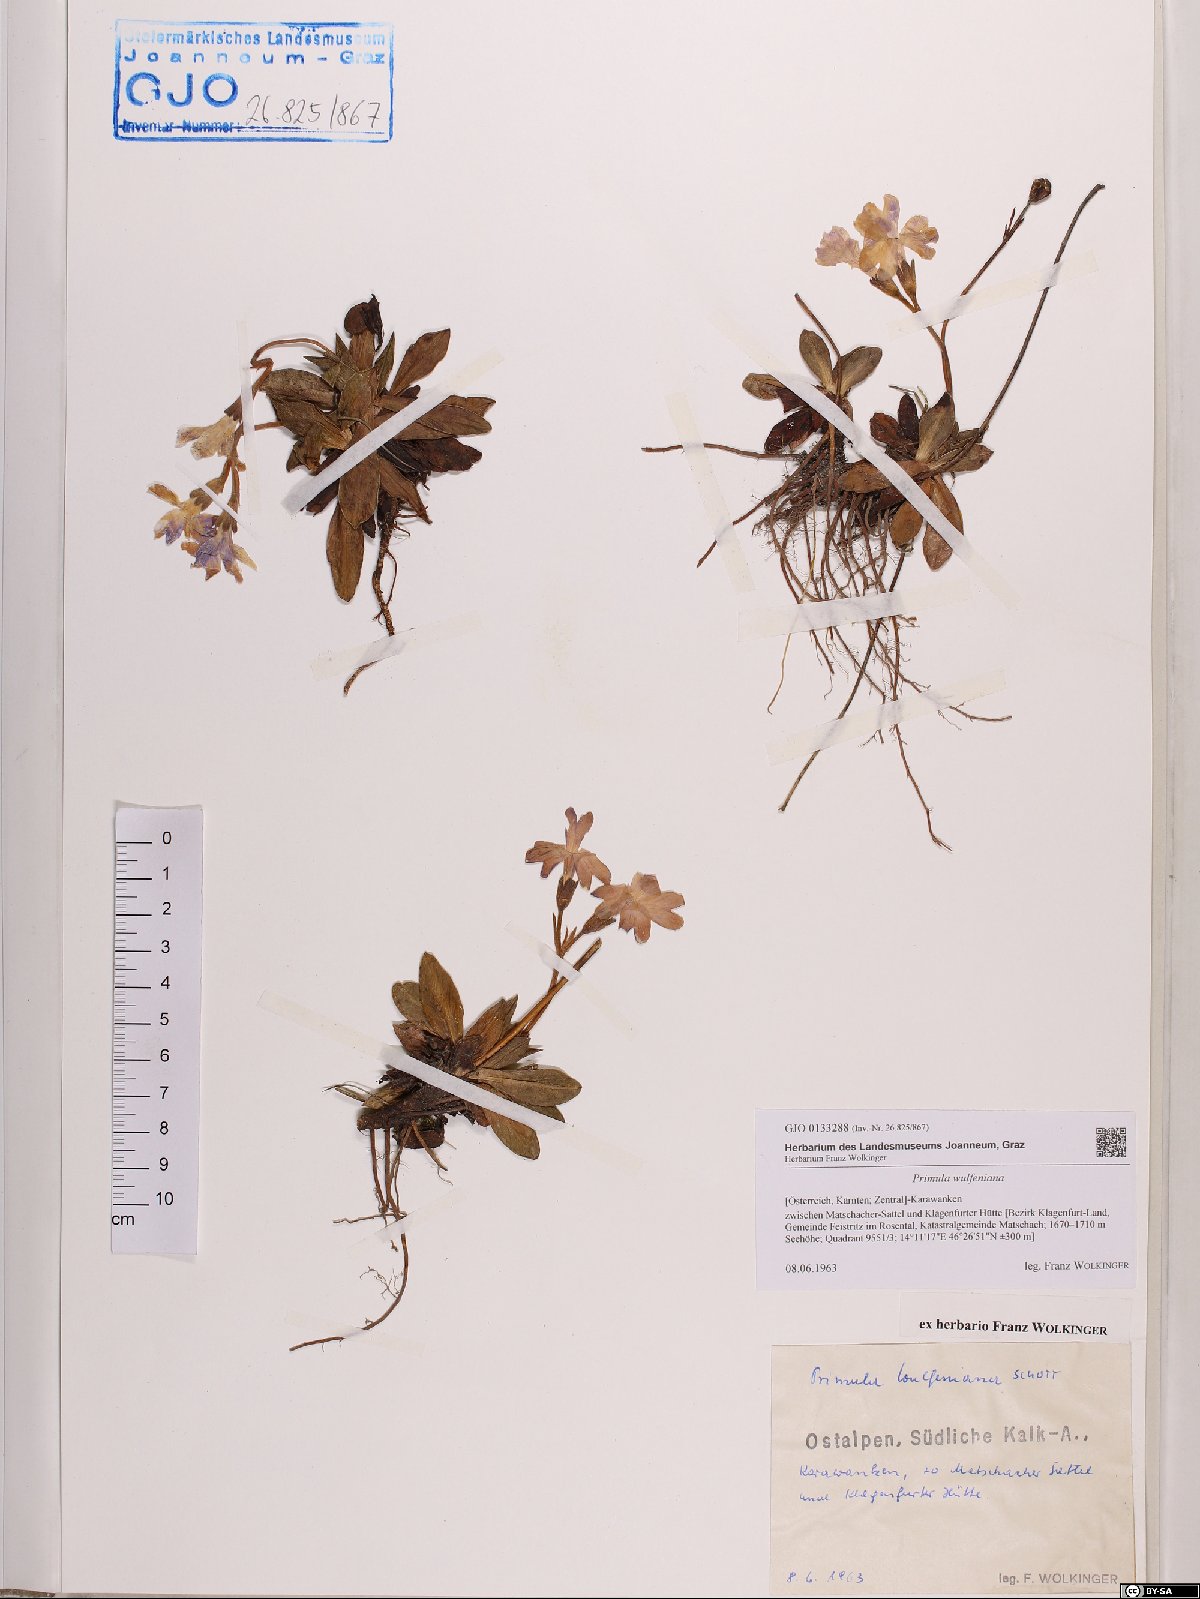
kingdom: Plantae
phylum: Tracheophyta
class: Magnoliopsida
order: Ericales
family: Primulaceae
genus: Primula
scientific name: Primula wulfeniana
